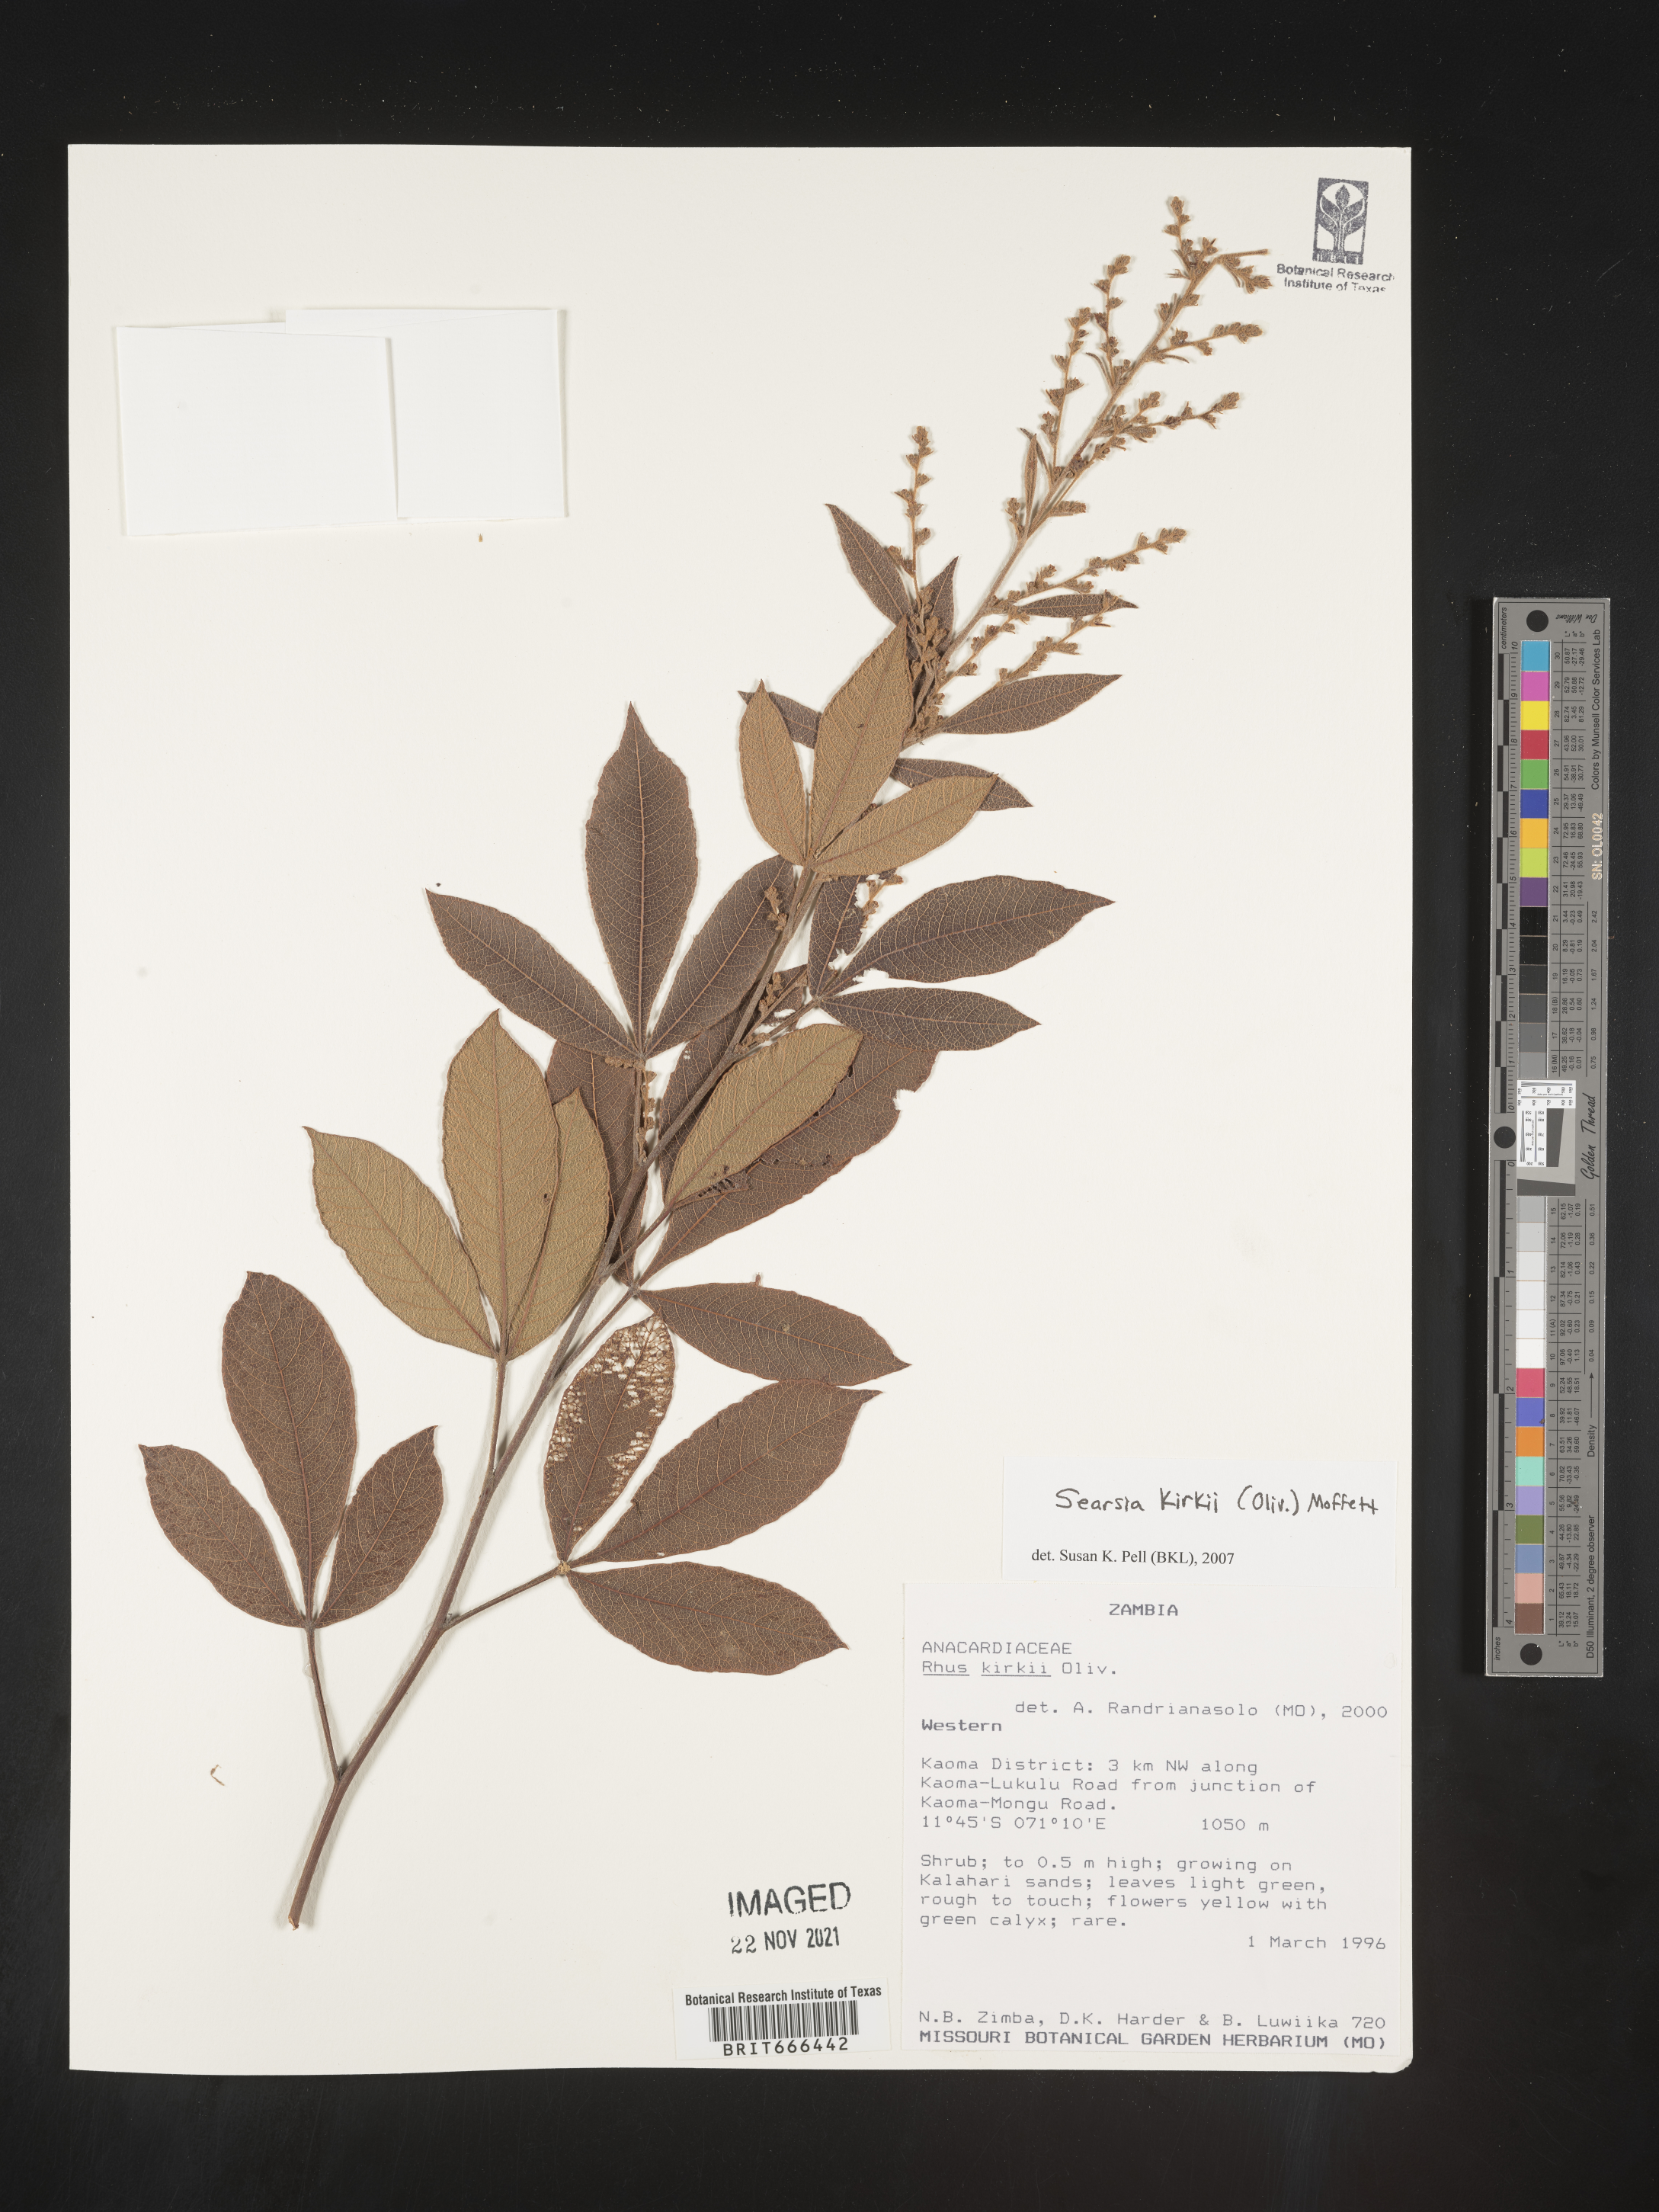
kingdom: Plantae
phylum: Tracheophyta
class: Magnoliopsida
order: Sapindales
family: Anacardiaceae
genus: Searsia
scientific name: Searsia
